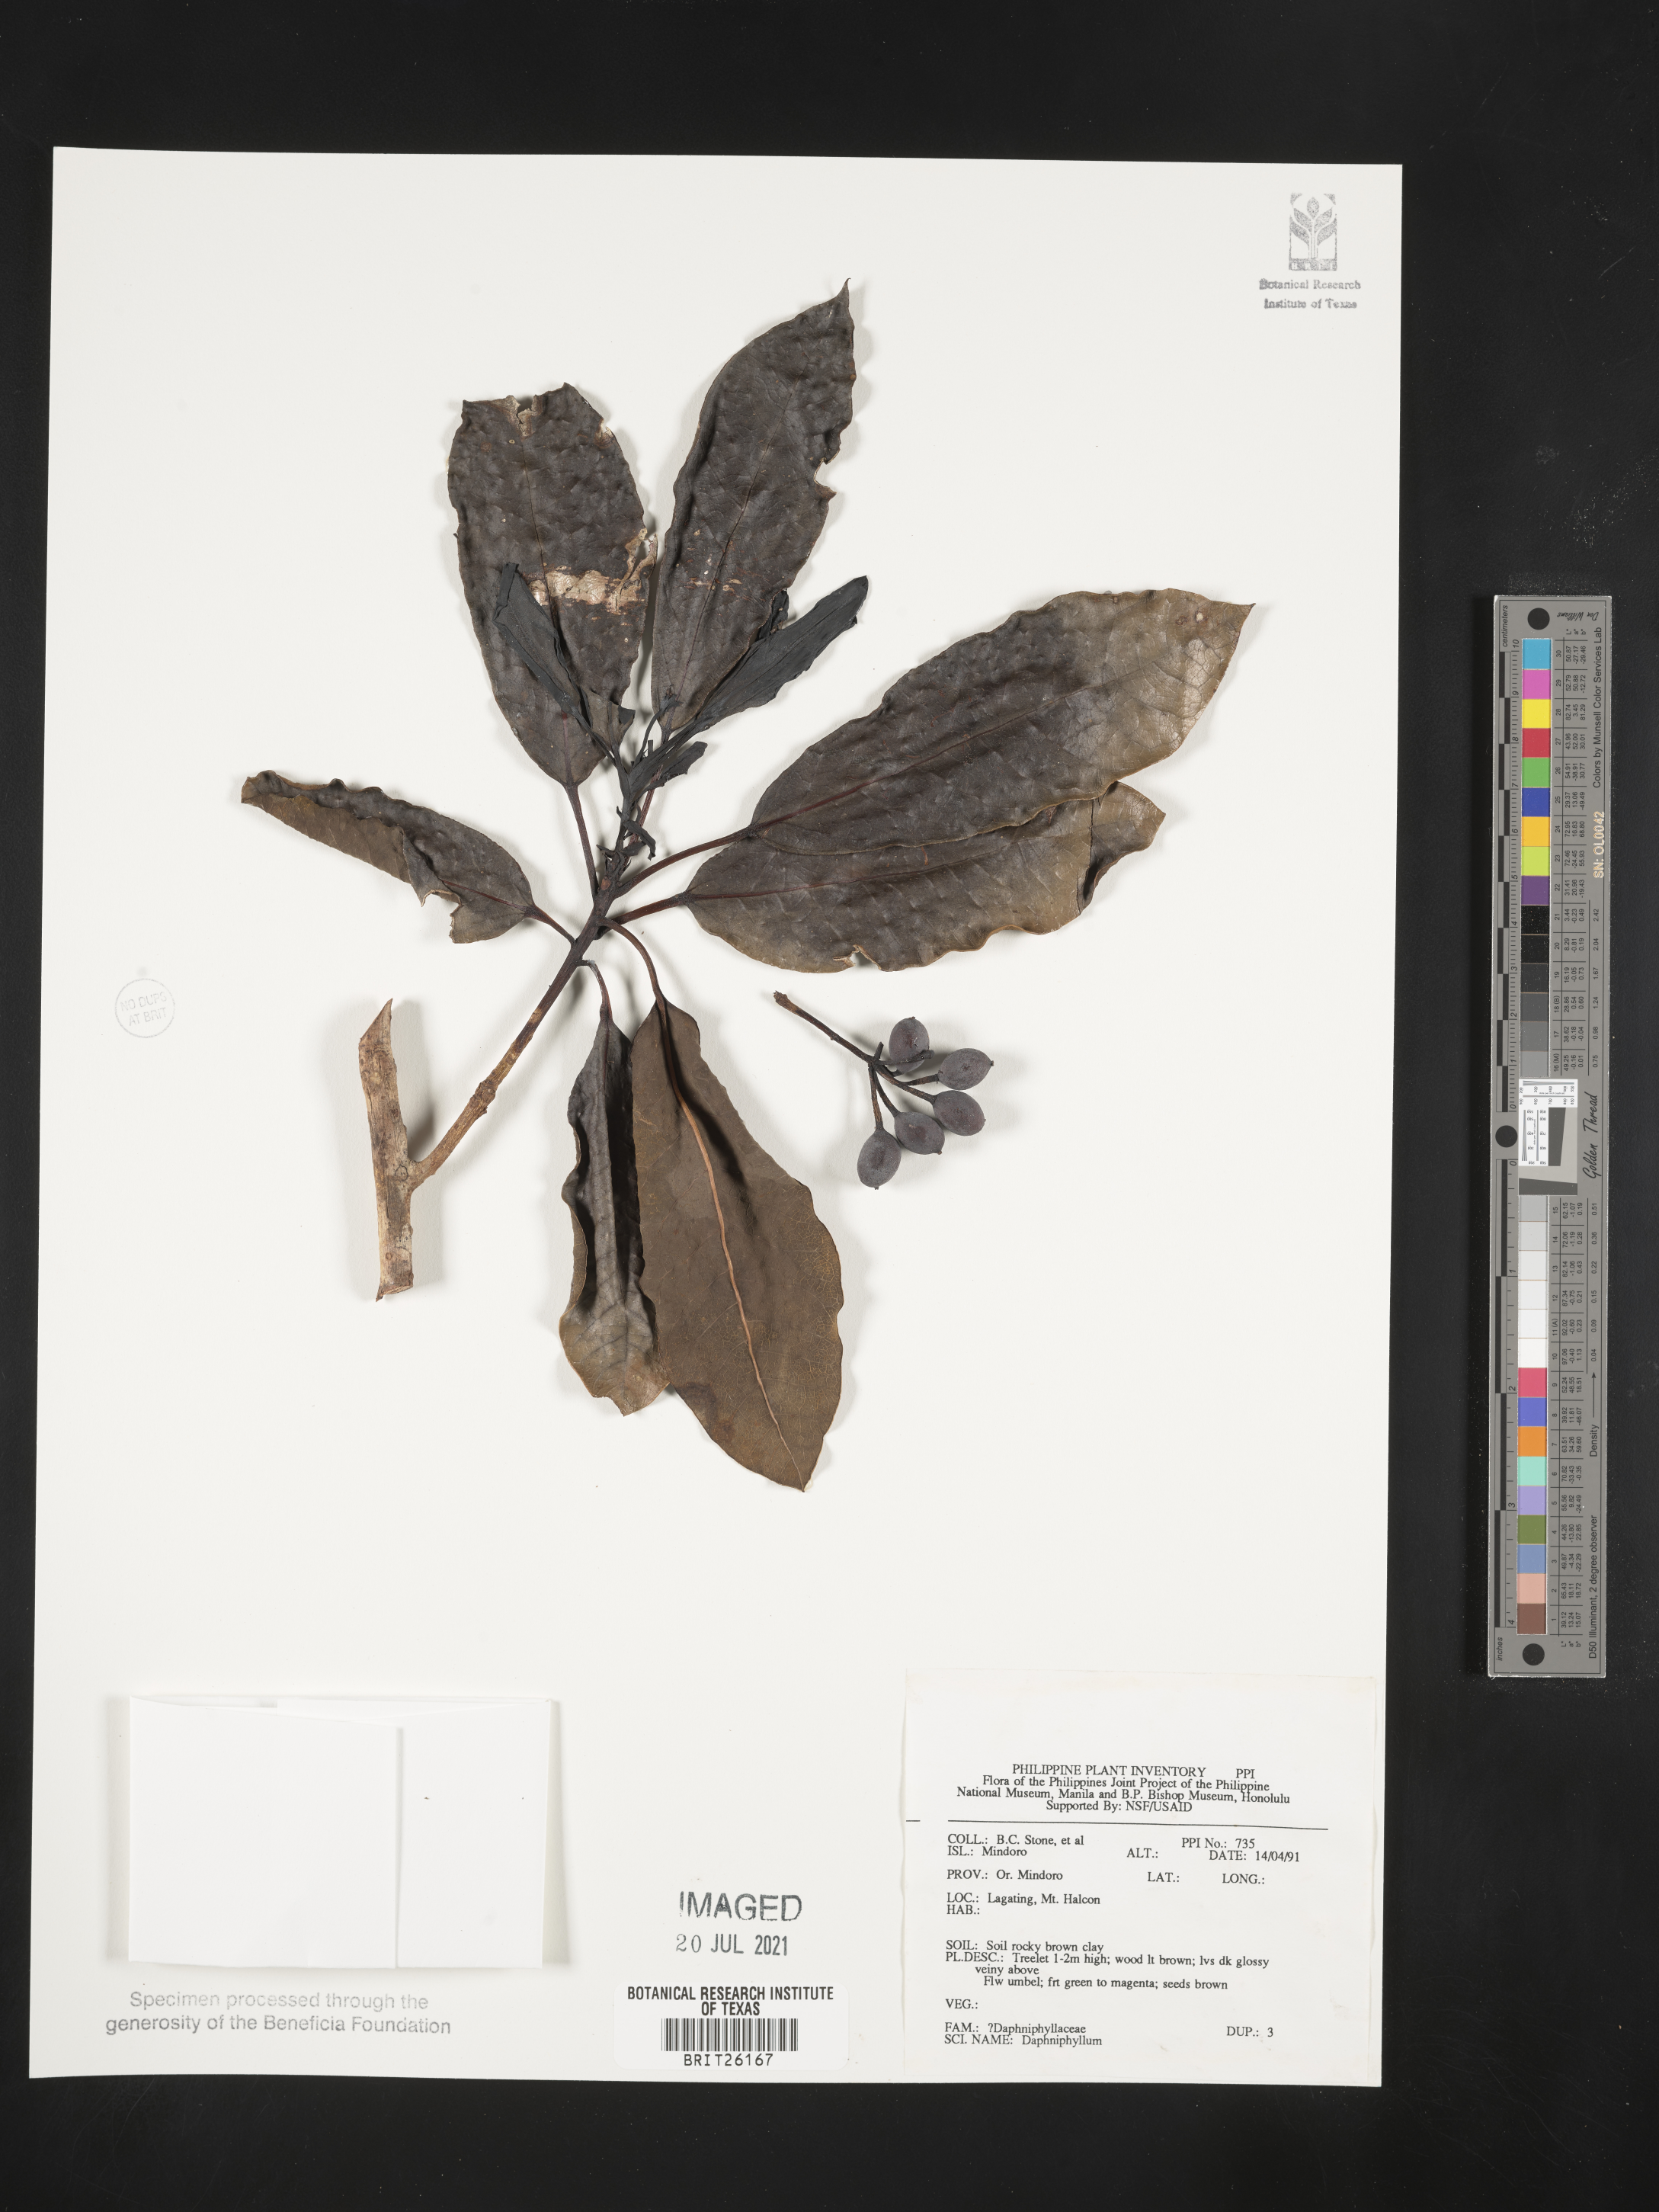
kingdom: Plantae
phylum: Tracheophyta
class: Magnoliopsida
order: Saxifragales
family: Daphniphyllaceae
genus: Daphniphyllum
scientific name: Daphniphyllum
